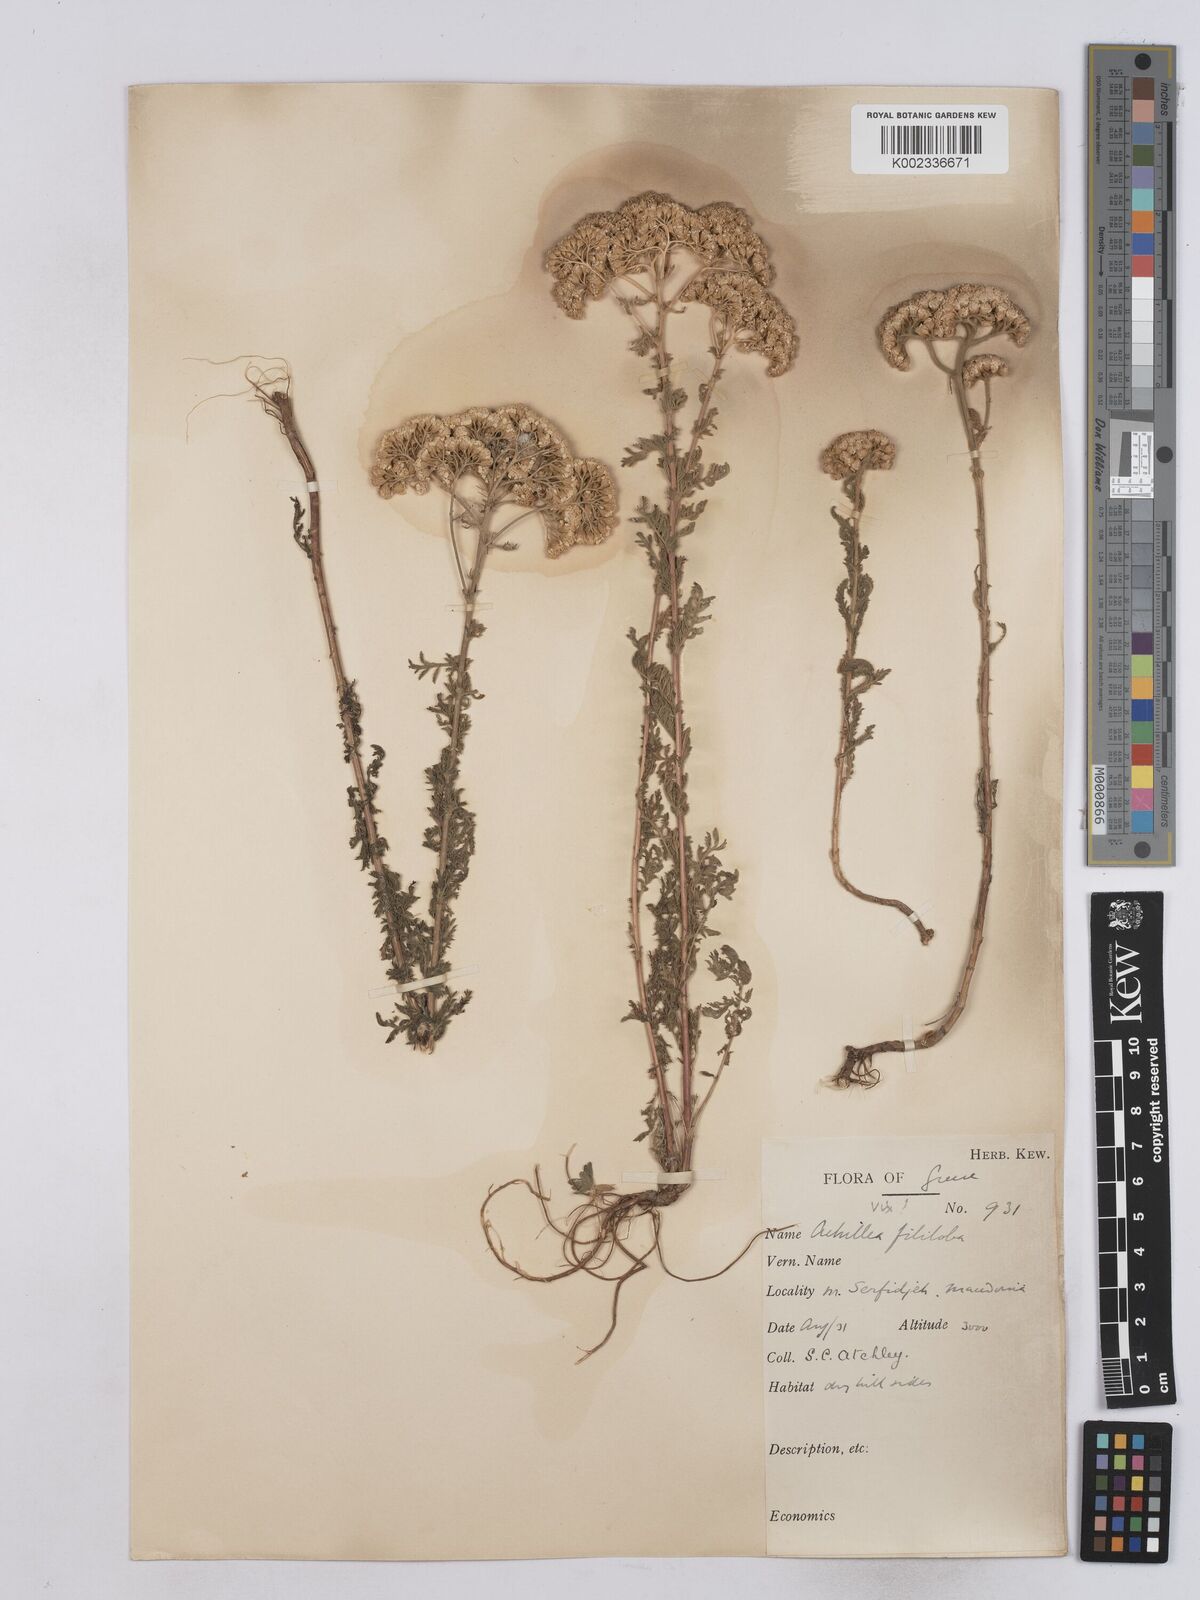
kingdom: Plantae
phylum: Tracheophyta
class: Magnoliopsida
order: Asterales
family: Asteraceae
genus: Achillea
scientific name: Achillea setacea
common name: Bristly yarrow
